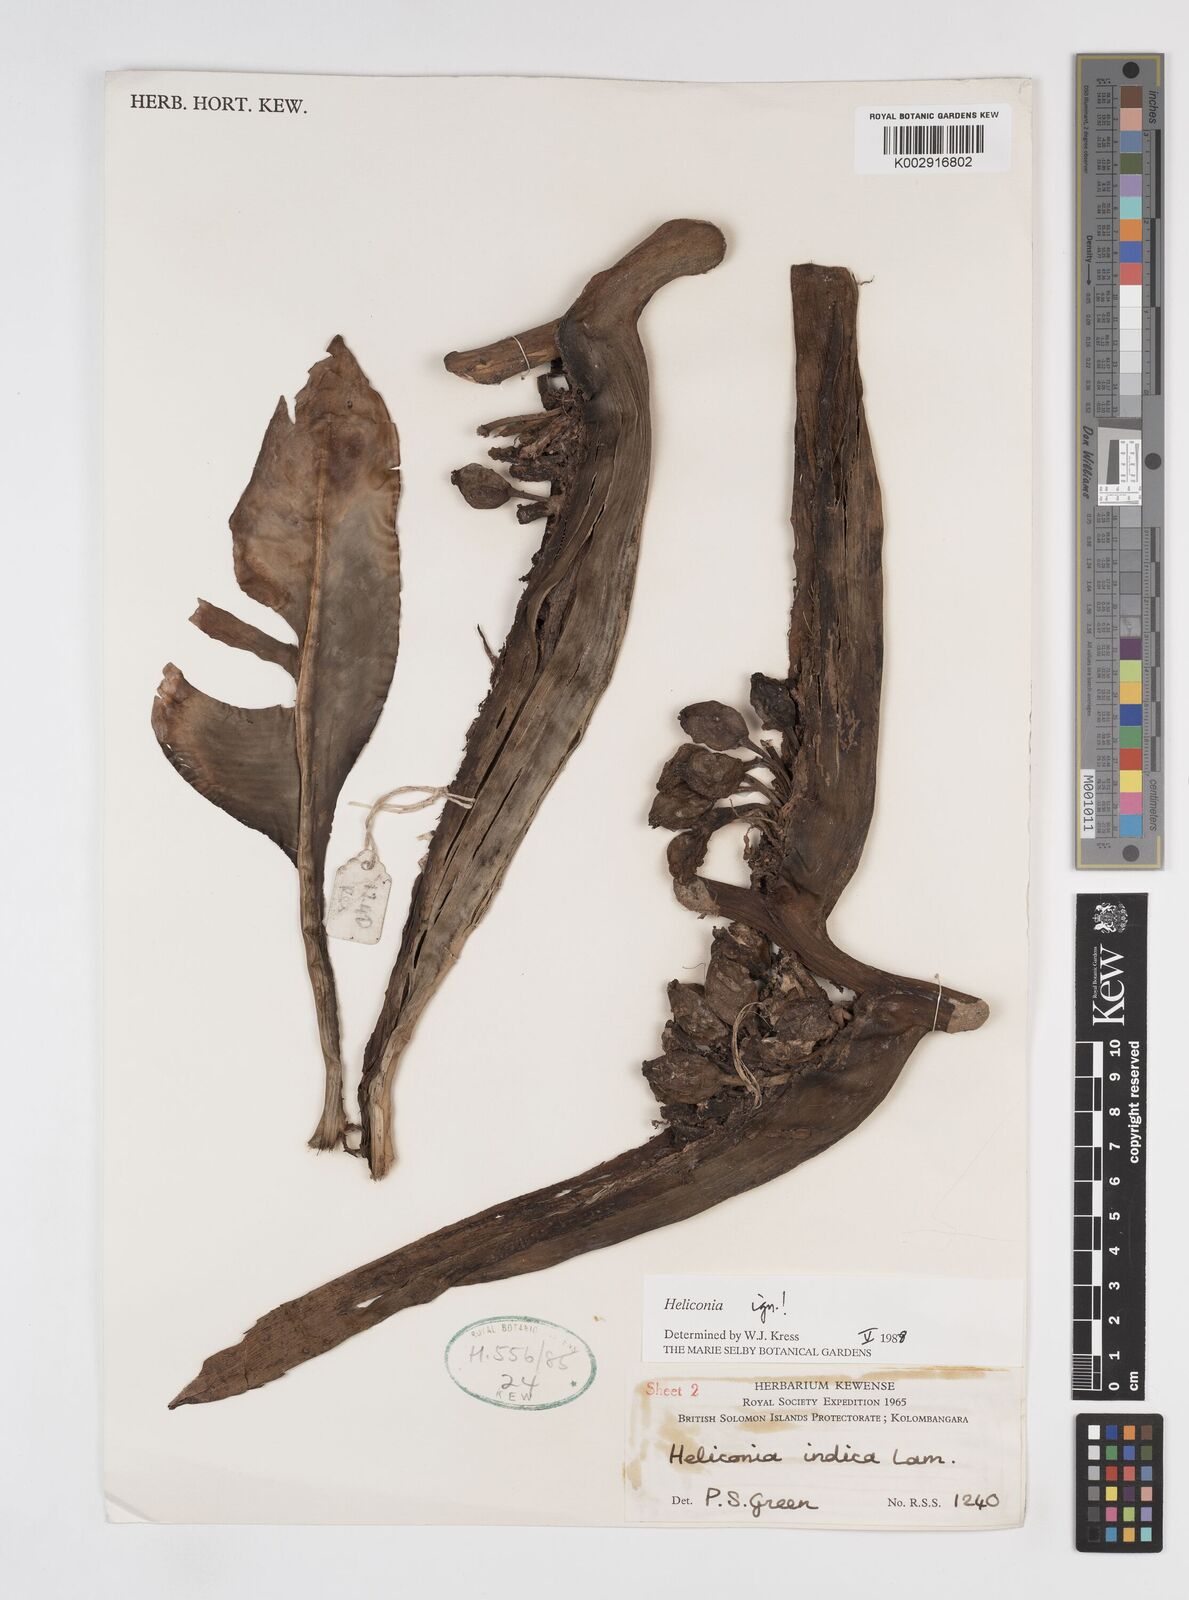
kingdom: Plantae
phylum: Tracheophyta
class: Liliopsida
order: Zingiberales
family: Heliconiaceae
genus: Heliconia
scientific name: Heliconia
